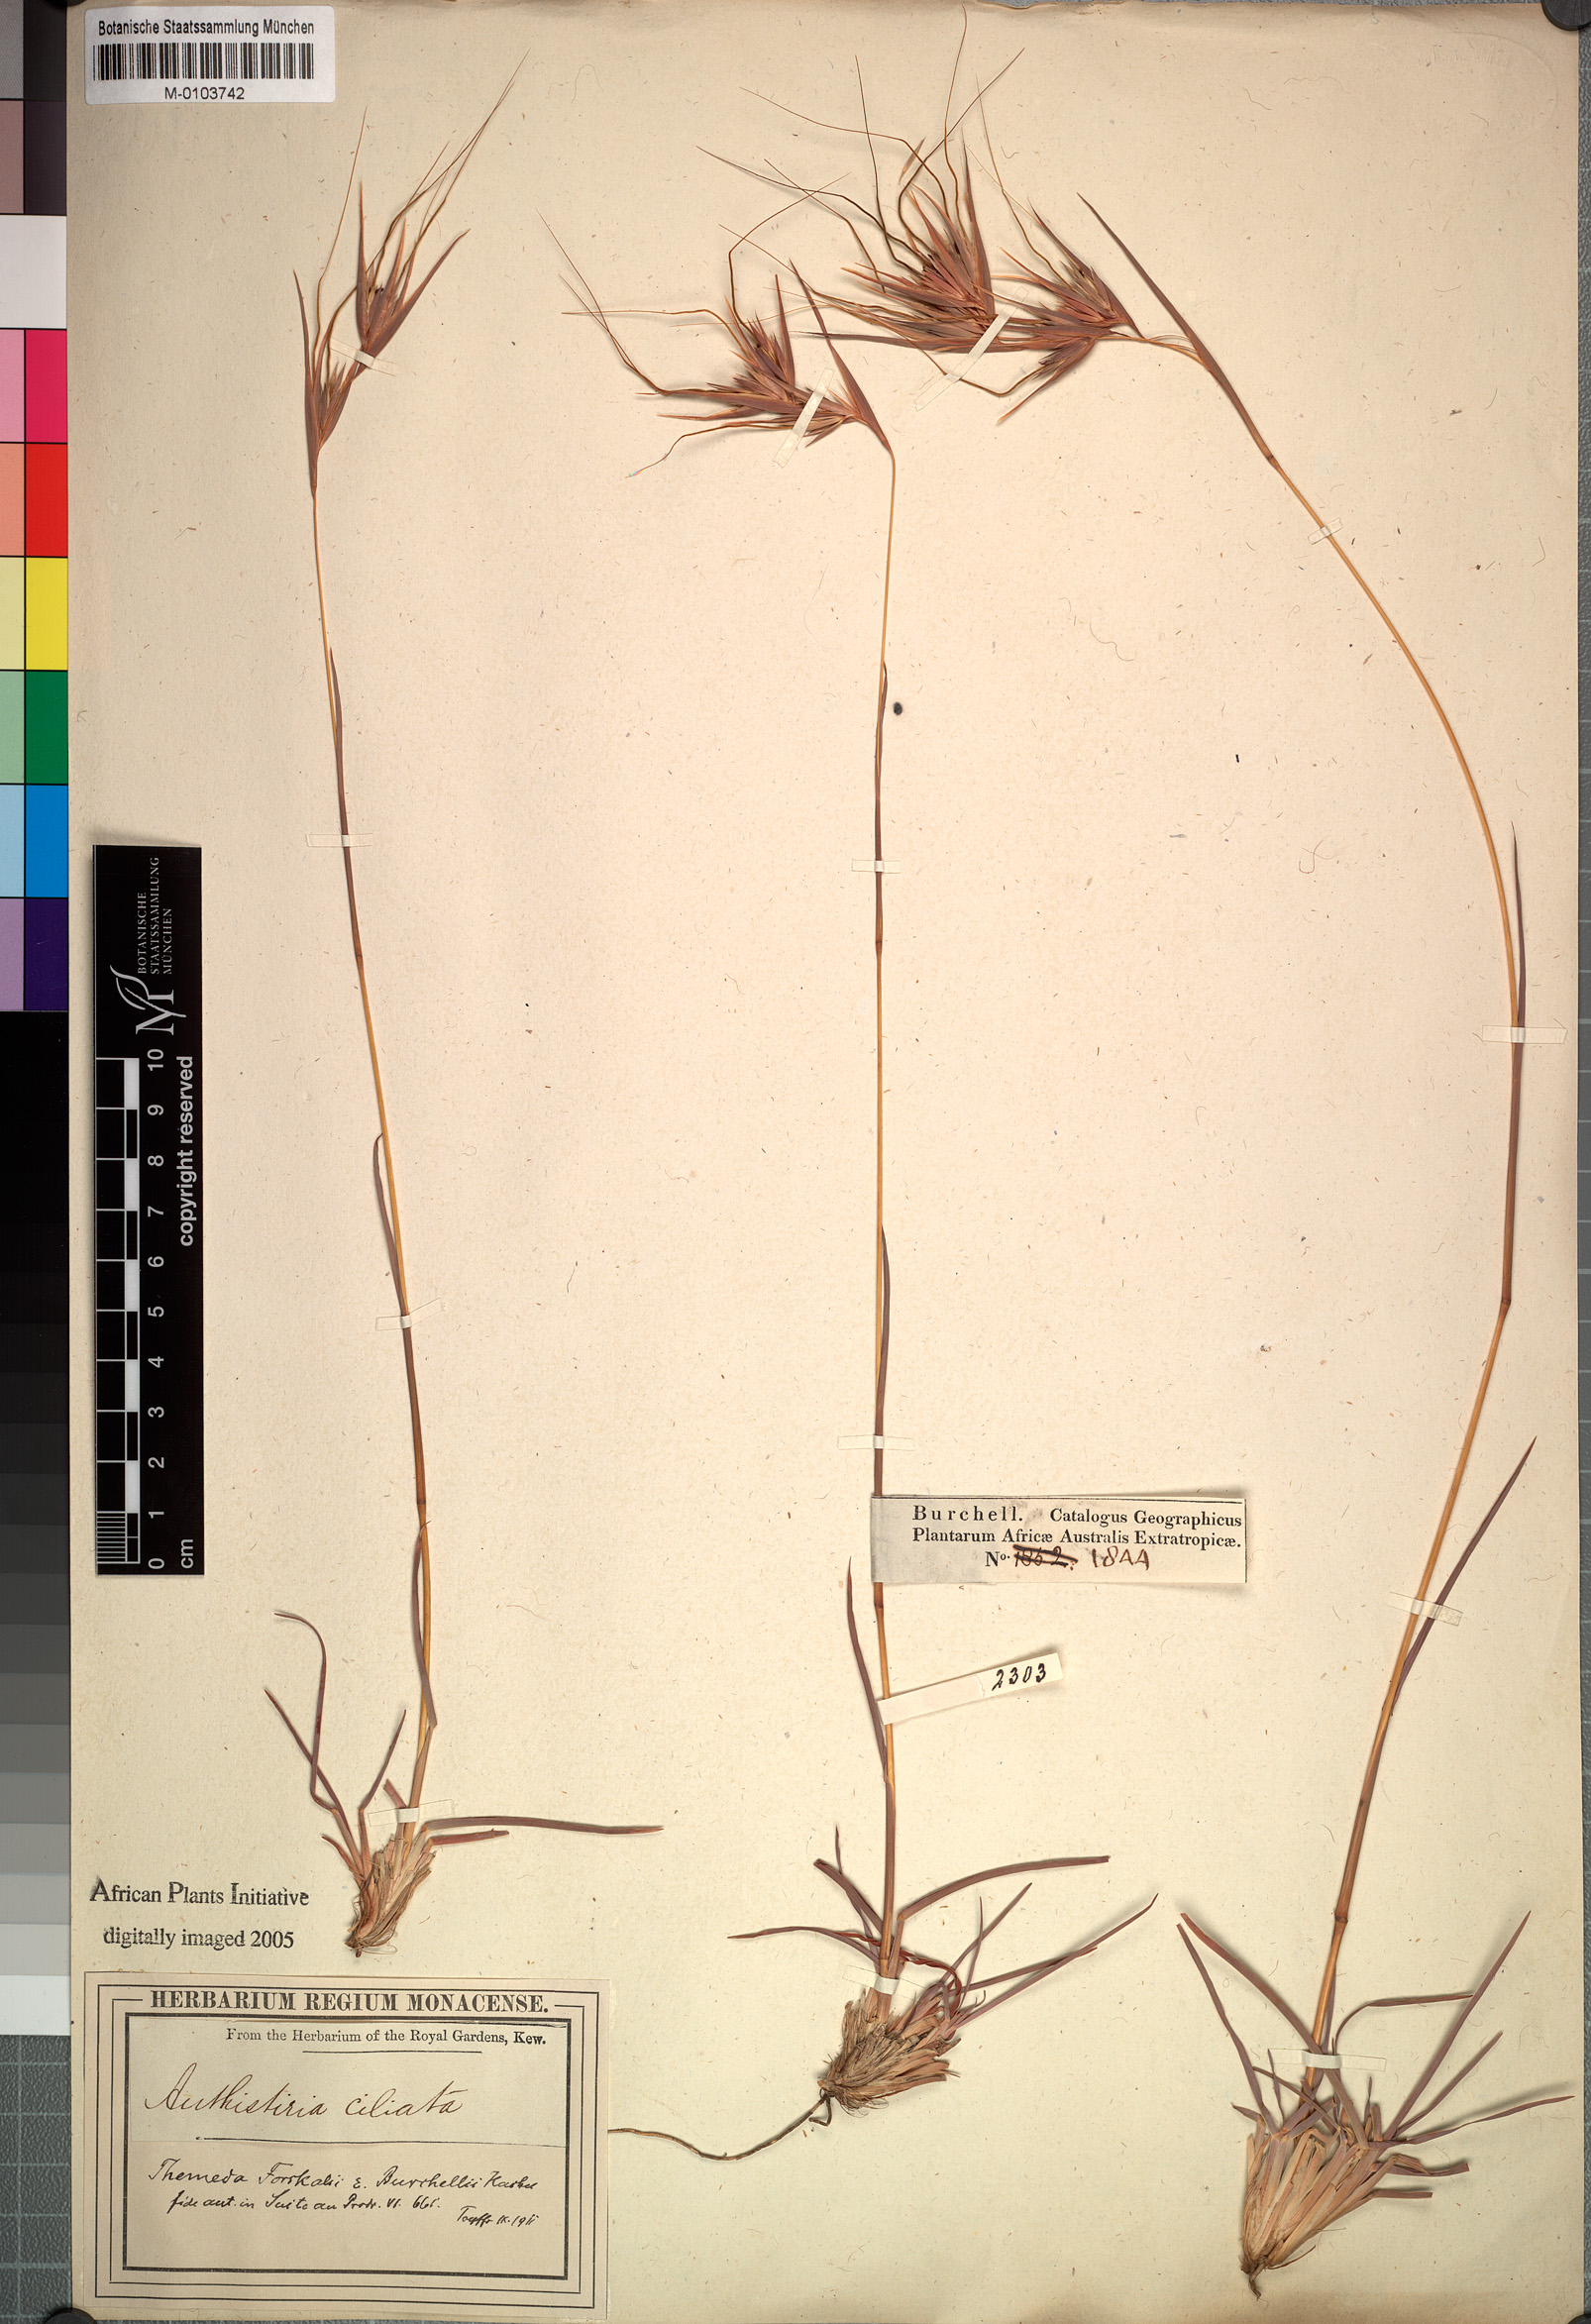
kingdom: Plantae
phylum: Tracheophyta
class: Liliopsida
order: Poales
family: Poaceae
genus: Themeda
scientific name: Themeda triandra
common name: Kangaroo grass
